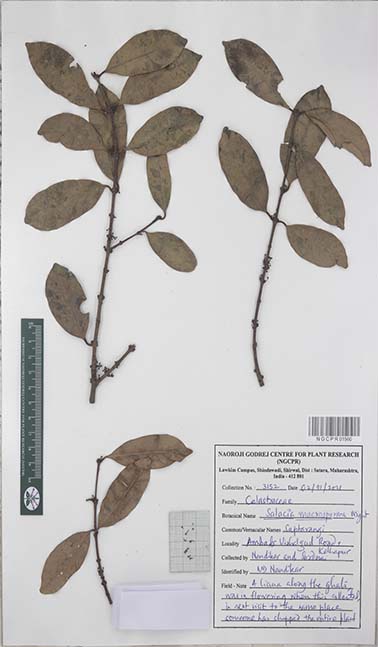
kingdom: Plantae
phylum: Tracheophyta
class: Magnoliopsida
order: Celastrales
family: Celastraceae
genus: Salacia
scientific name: Salacia macrosperma
